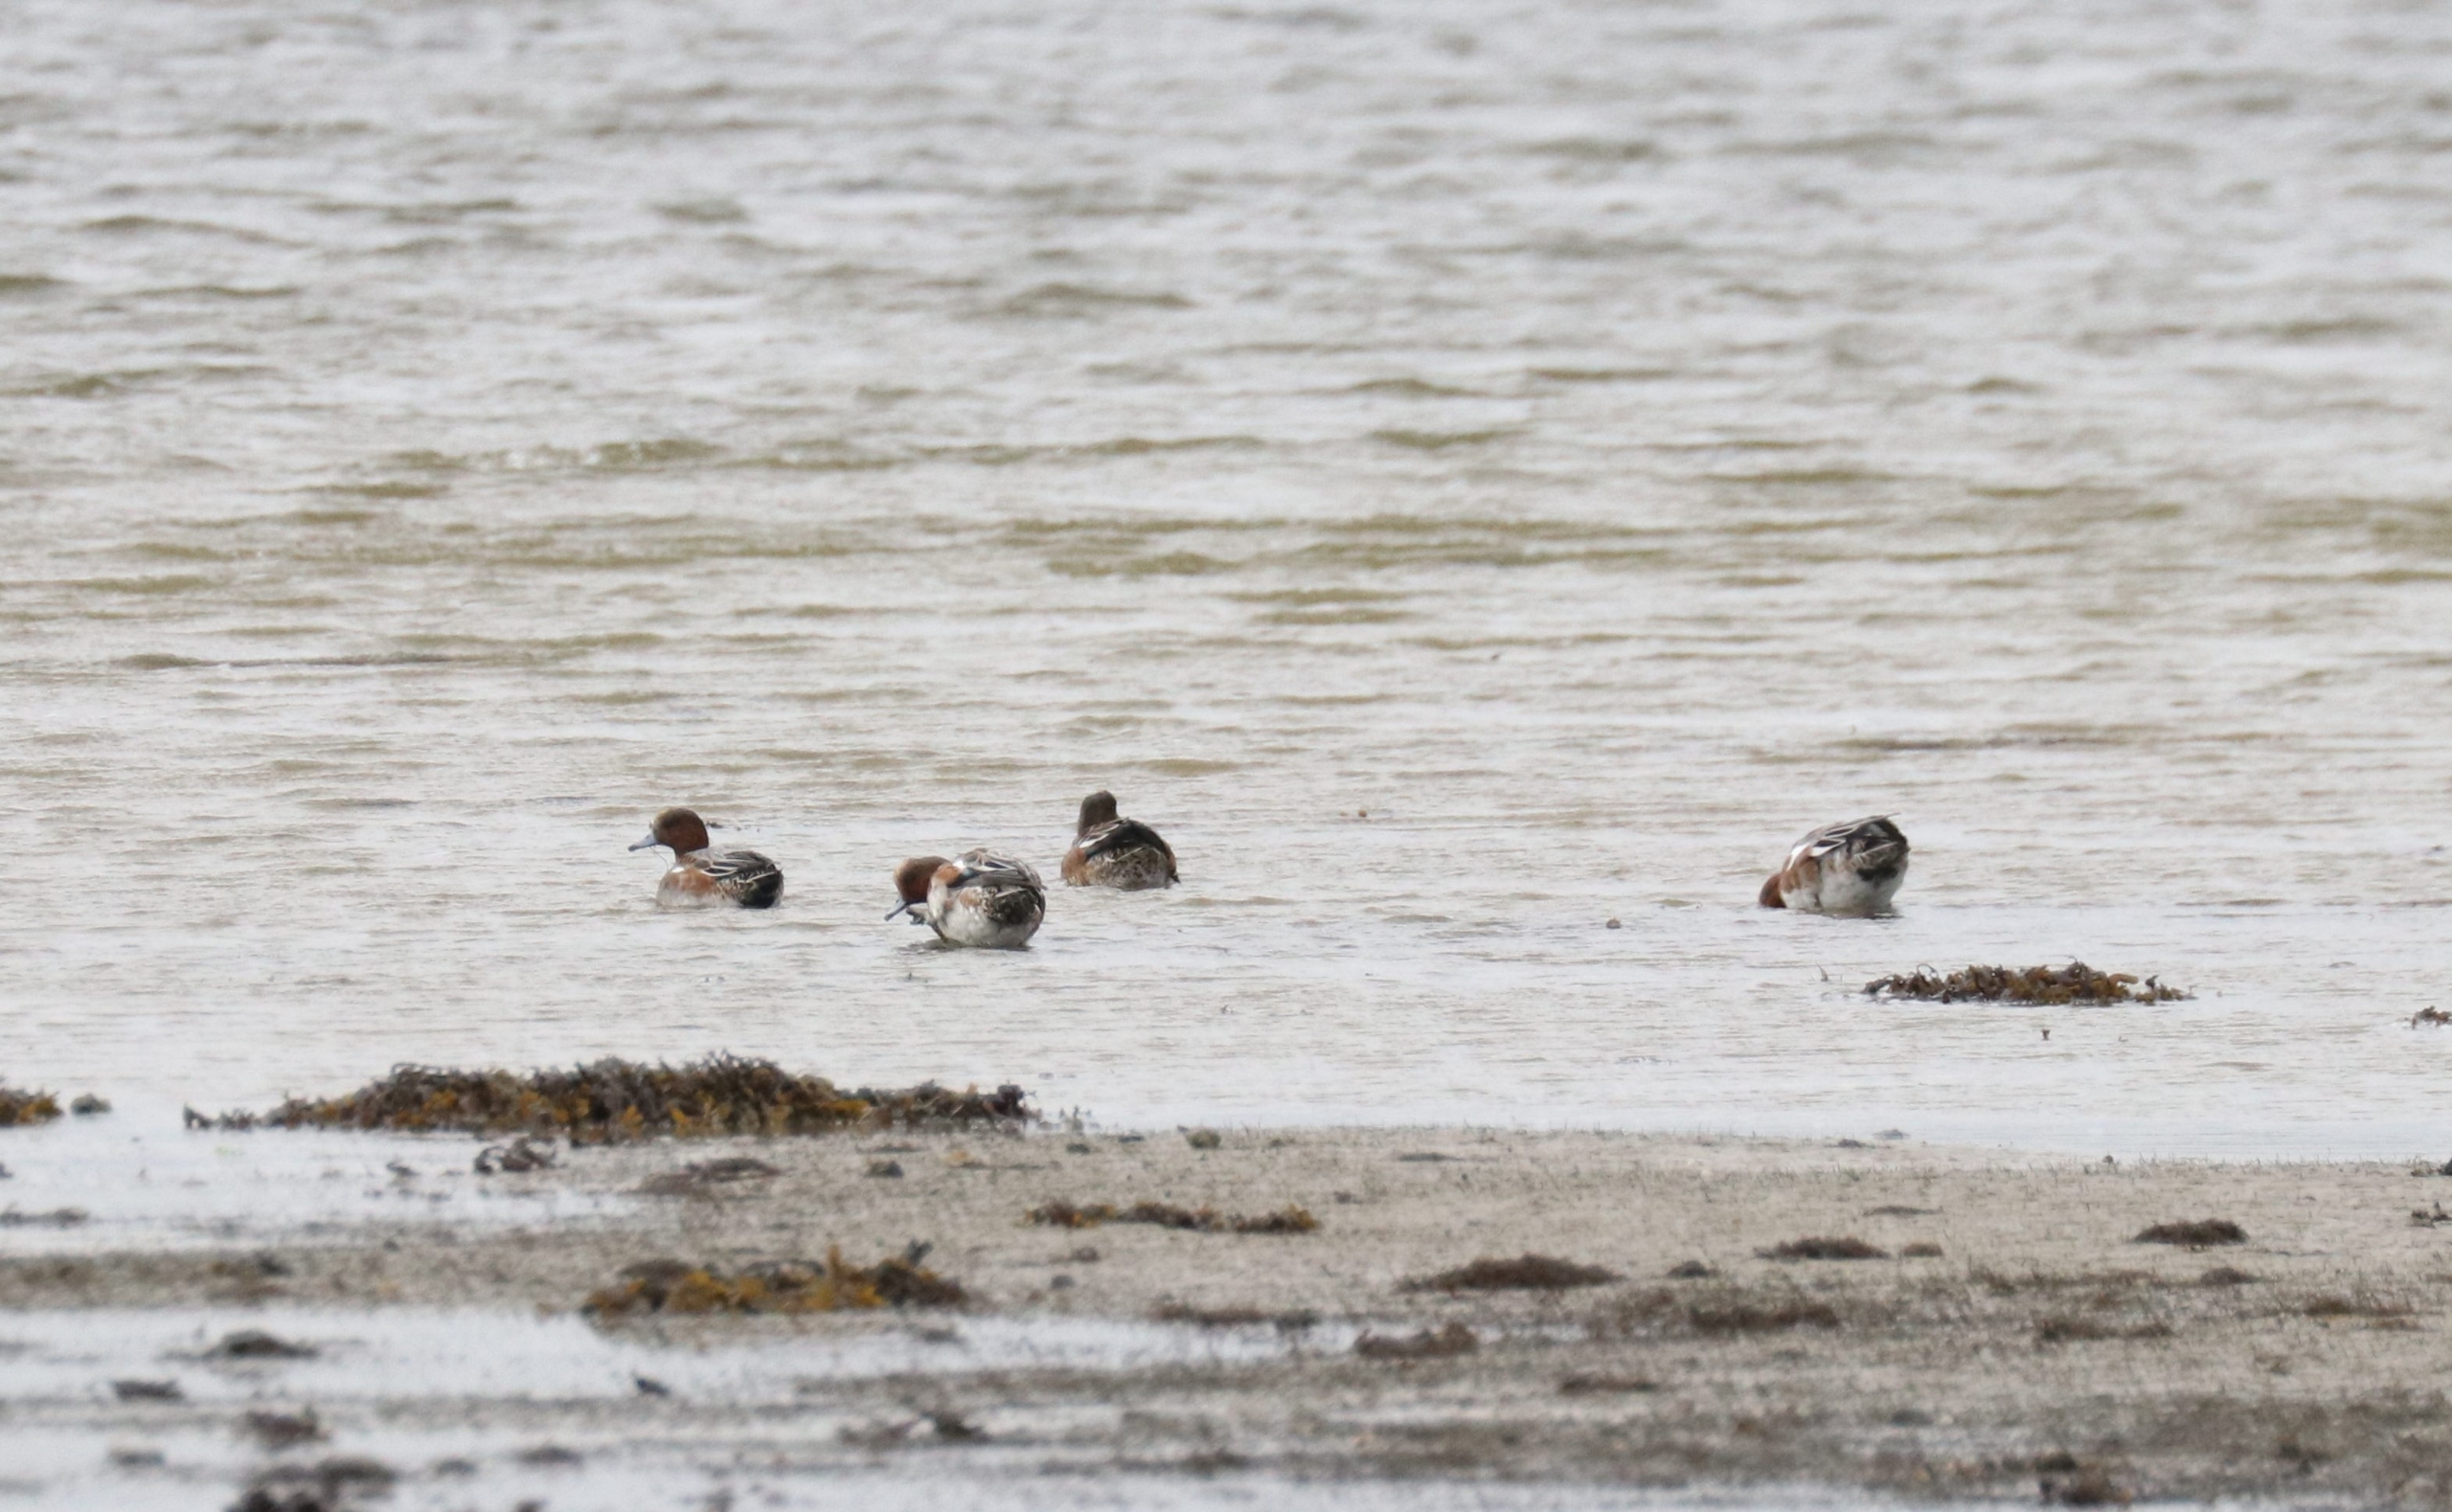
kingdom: Animalia
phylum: Chordata
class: Aves
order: Anseriformes
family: Anatidae
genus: Mareca
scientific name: Mareca penelope
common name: Pibeand
